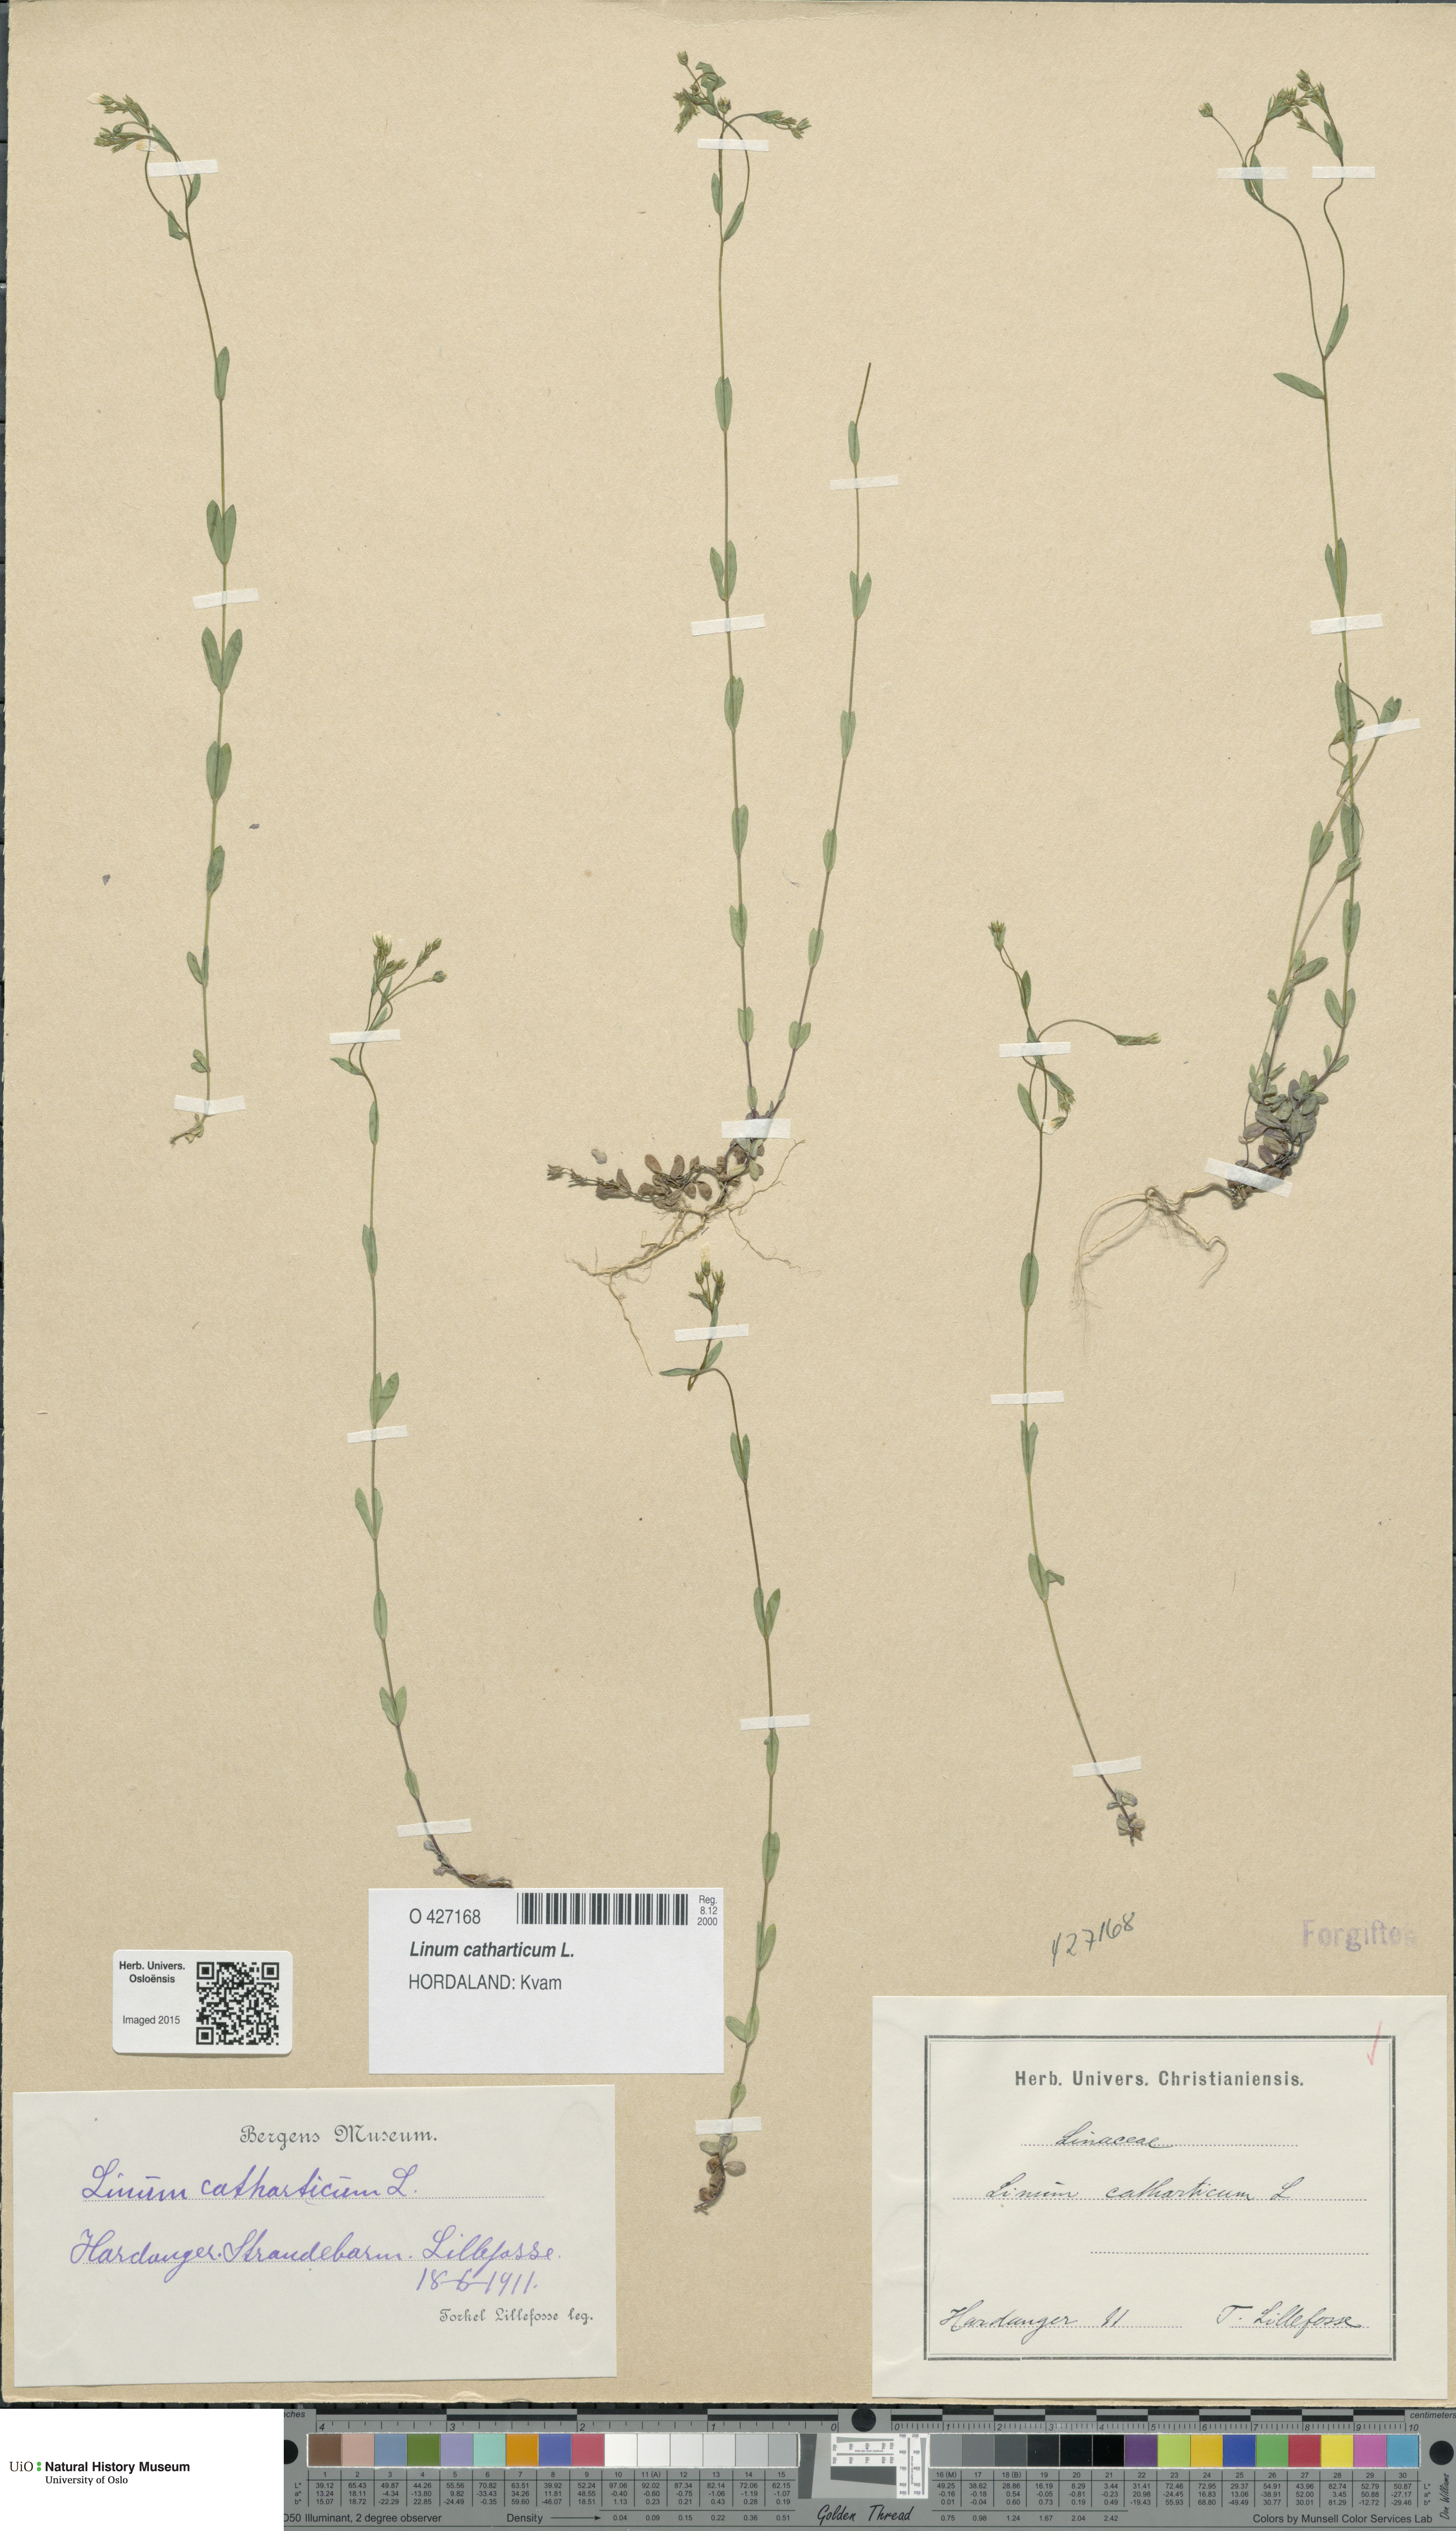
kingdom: Plantae
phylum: Tracheophyta
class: Magnoliopsida
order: Malpighiales
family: Linaceae
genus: Linum
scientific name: Linum catharticum
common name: Fairy flax
